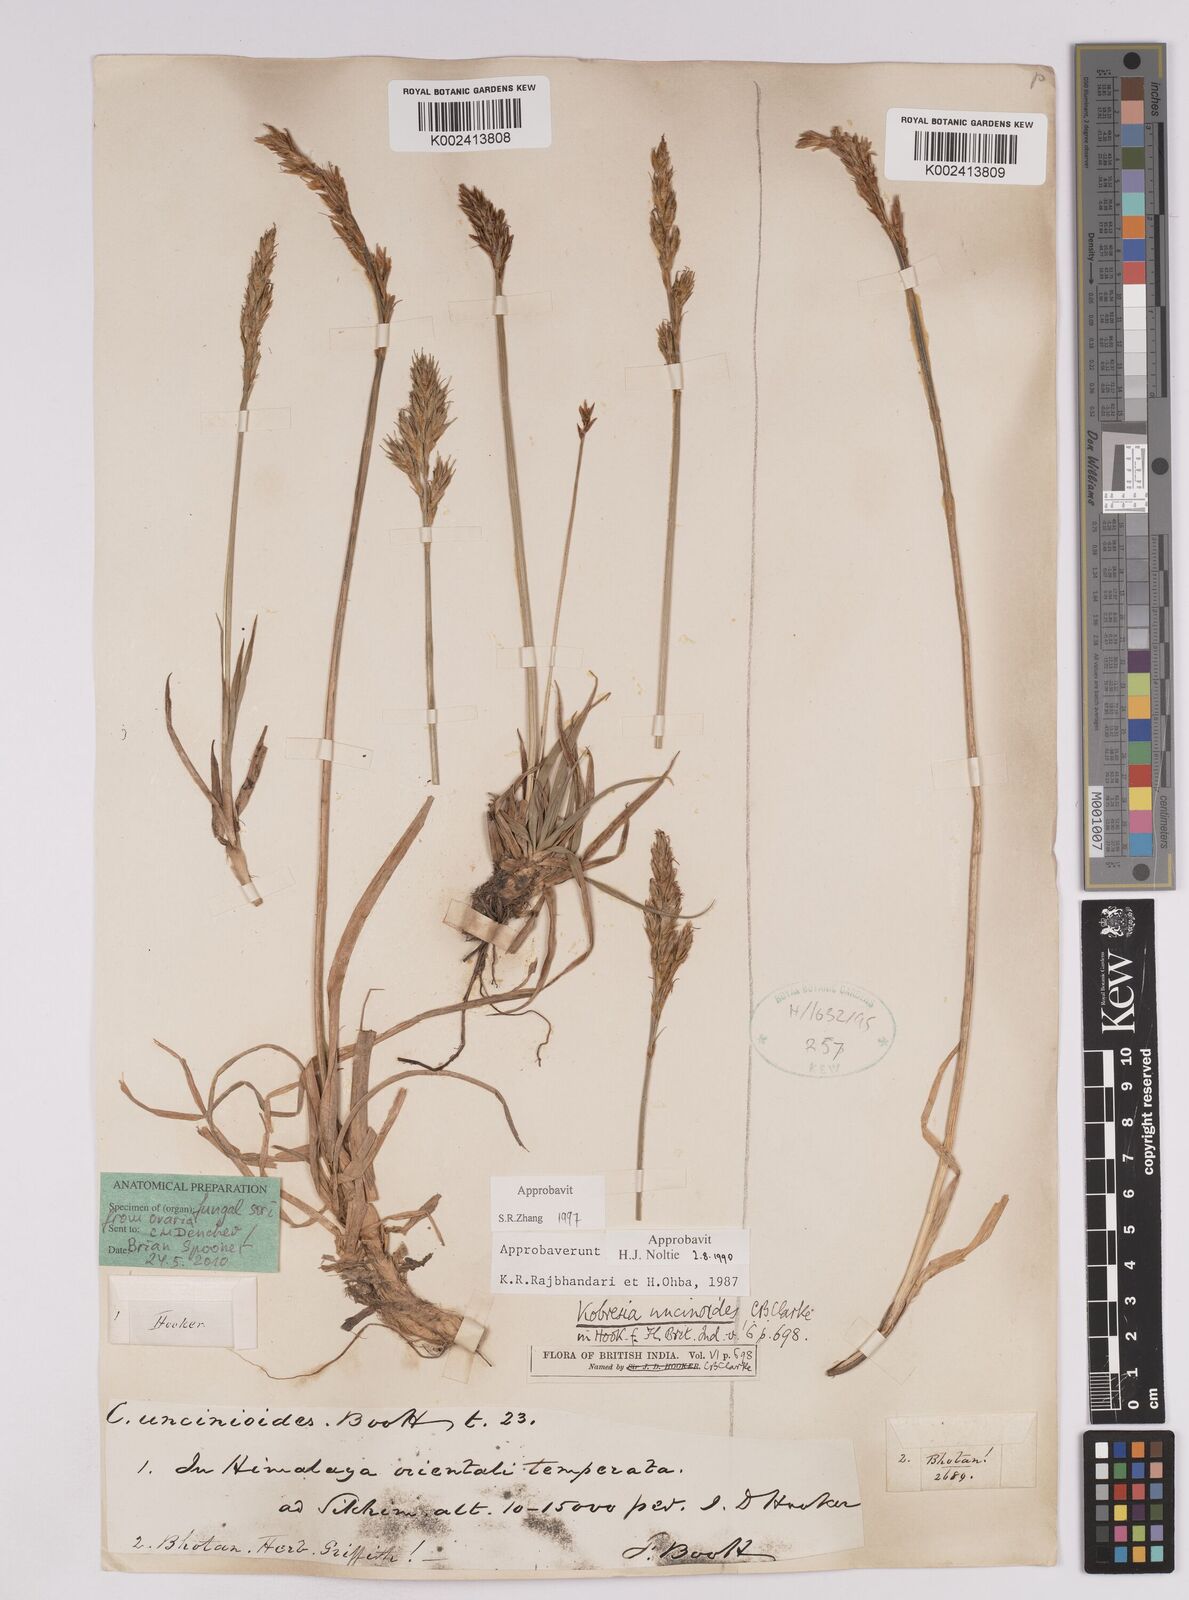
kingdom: Plantae
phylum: Tracheophyta
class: Liliopsida
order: Poales
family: Cyperaceae
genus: Carex
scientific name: Carex uncinioides
